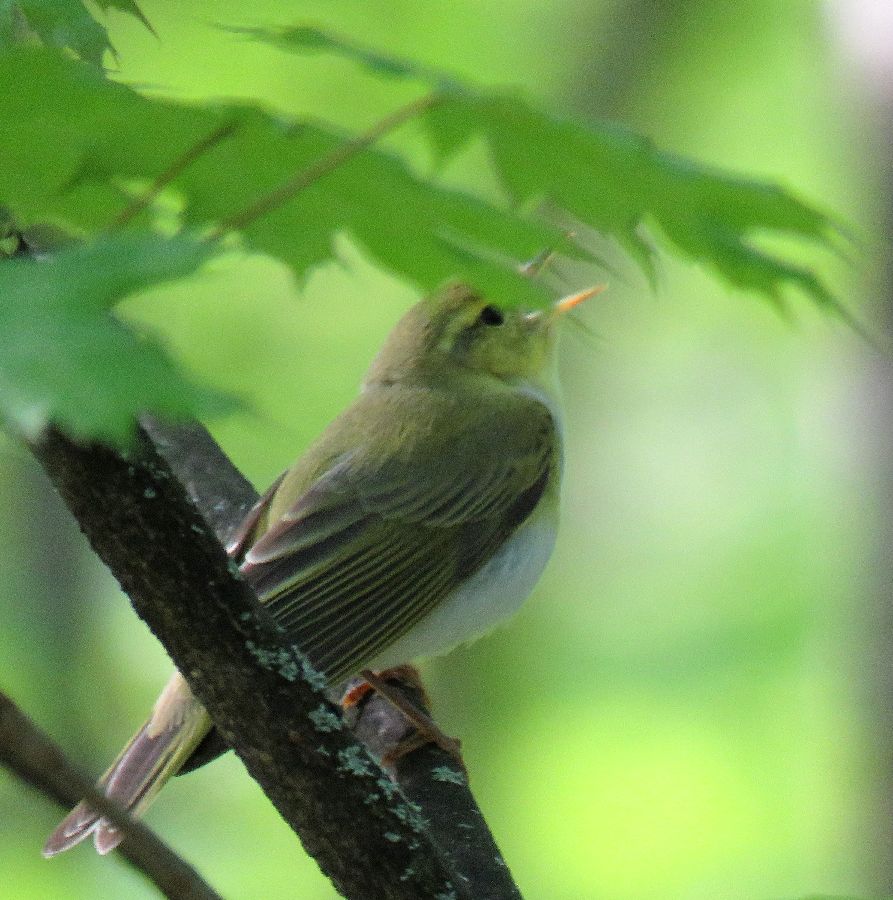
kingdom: Animalia
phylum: Chordata
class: Aves
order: Passeriformes
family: Phylloscopidae
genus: Phylloscopus
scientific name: Phylloscopus sibillatrix
